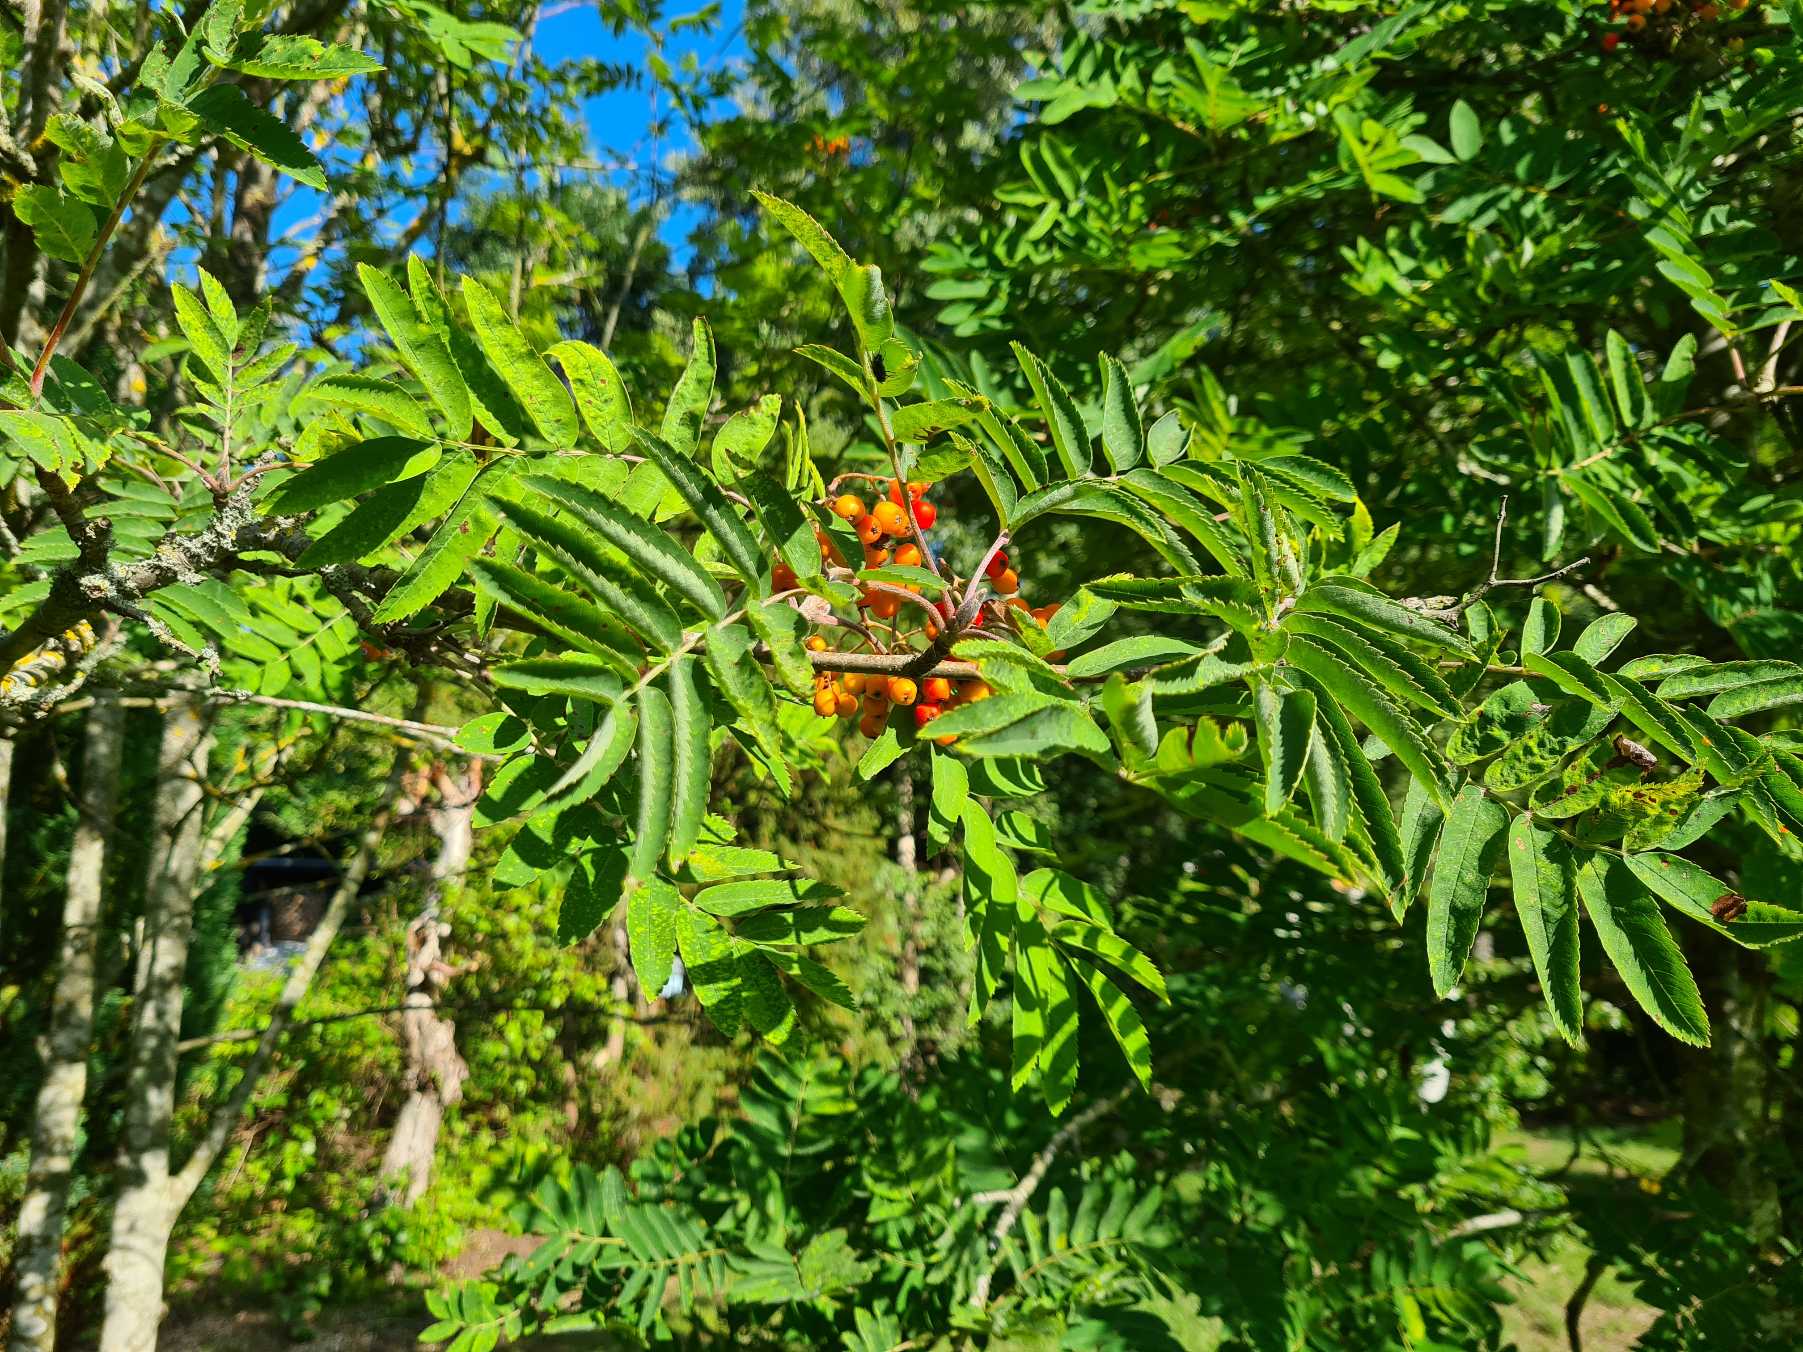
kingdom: Plantae
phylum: Tracheophyta
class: Magnoliopsida
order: Rosales
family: Rosaceae
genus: Sorbus
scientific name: Sorbus aucuparia
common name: Almindelig røn
